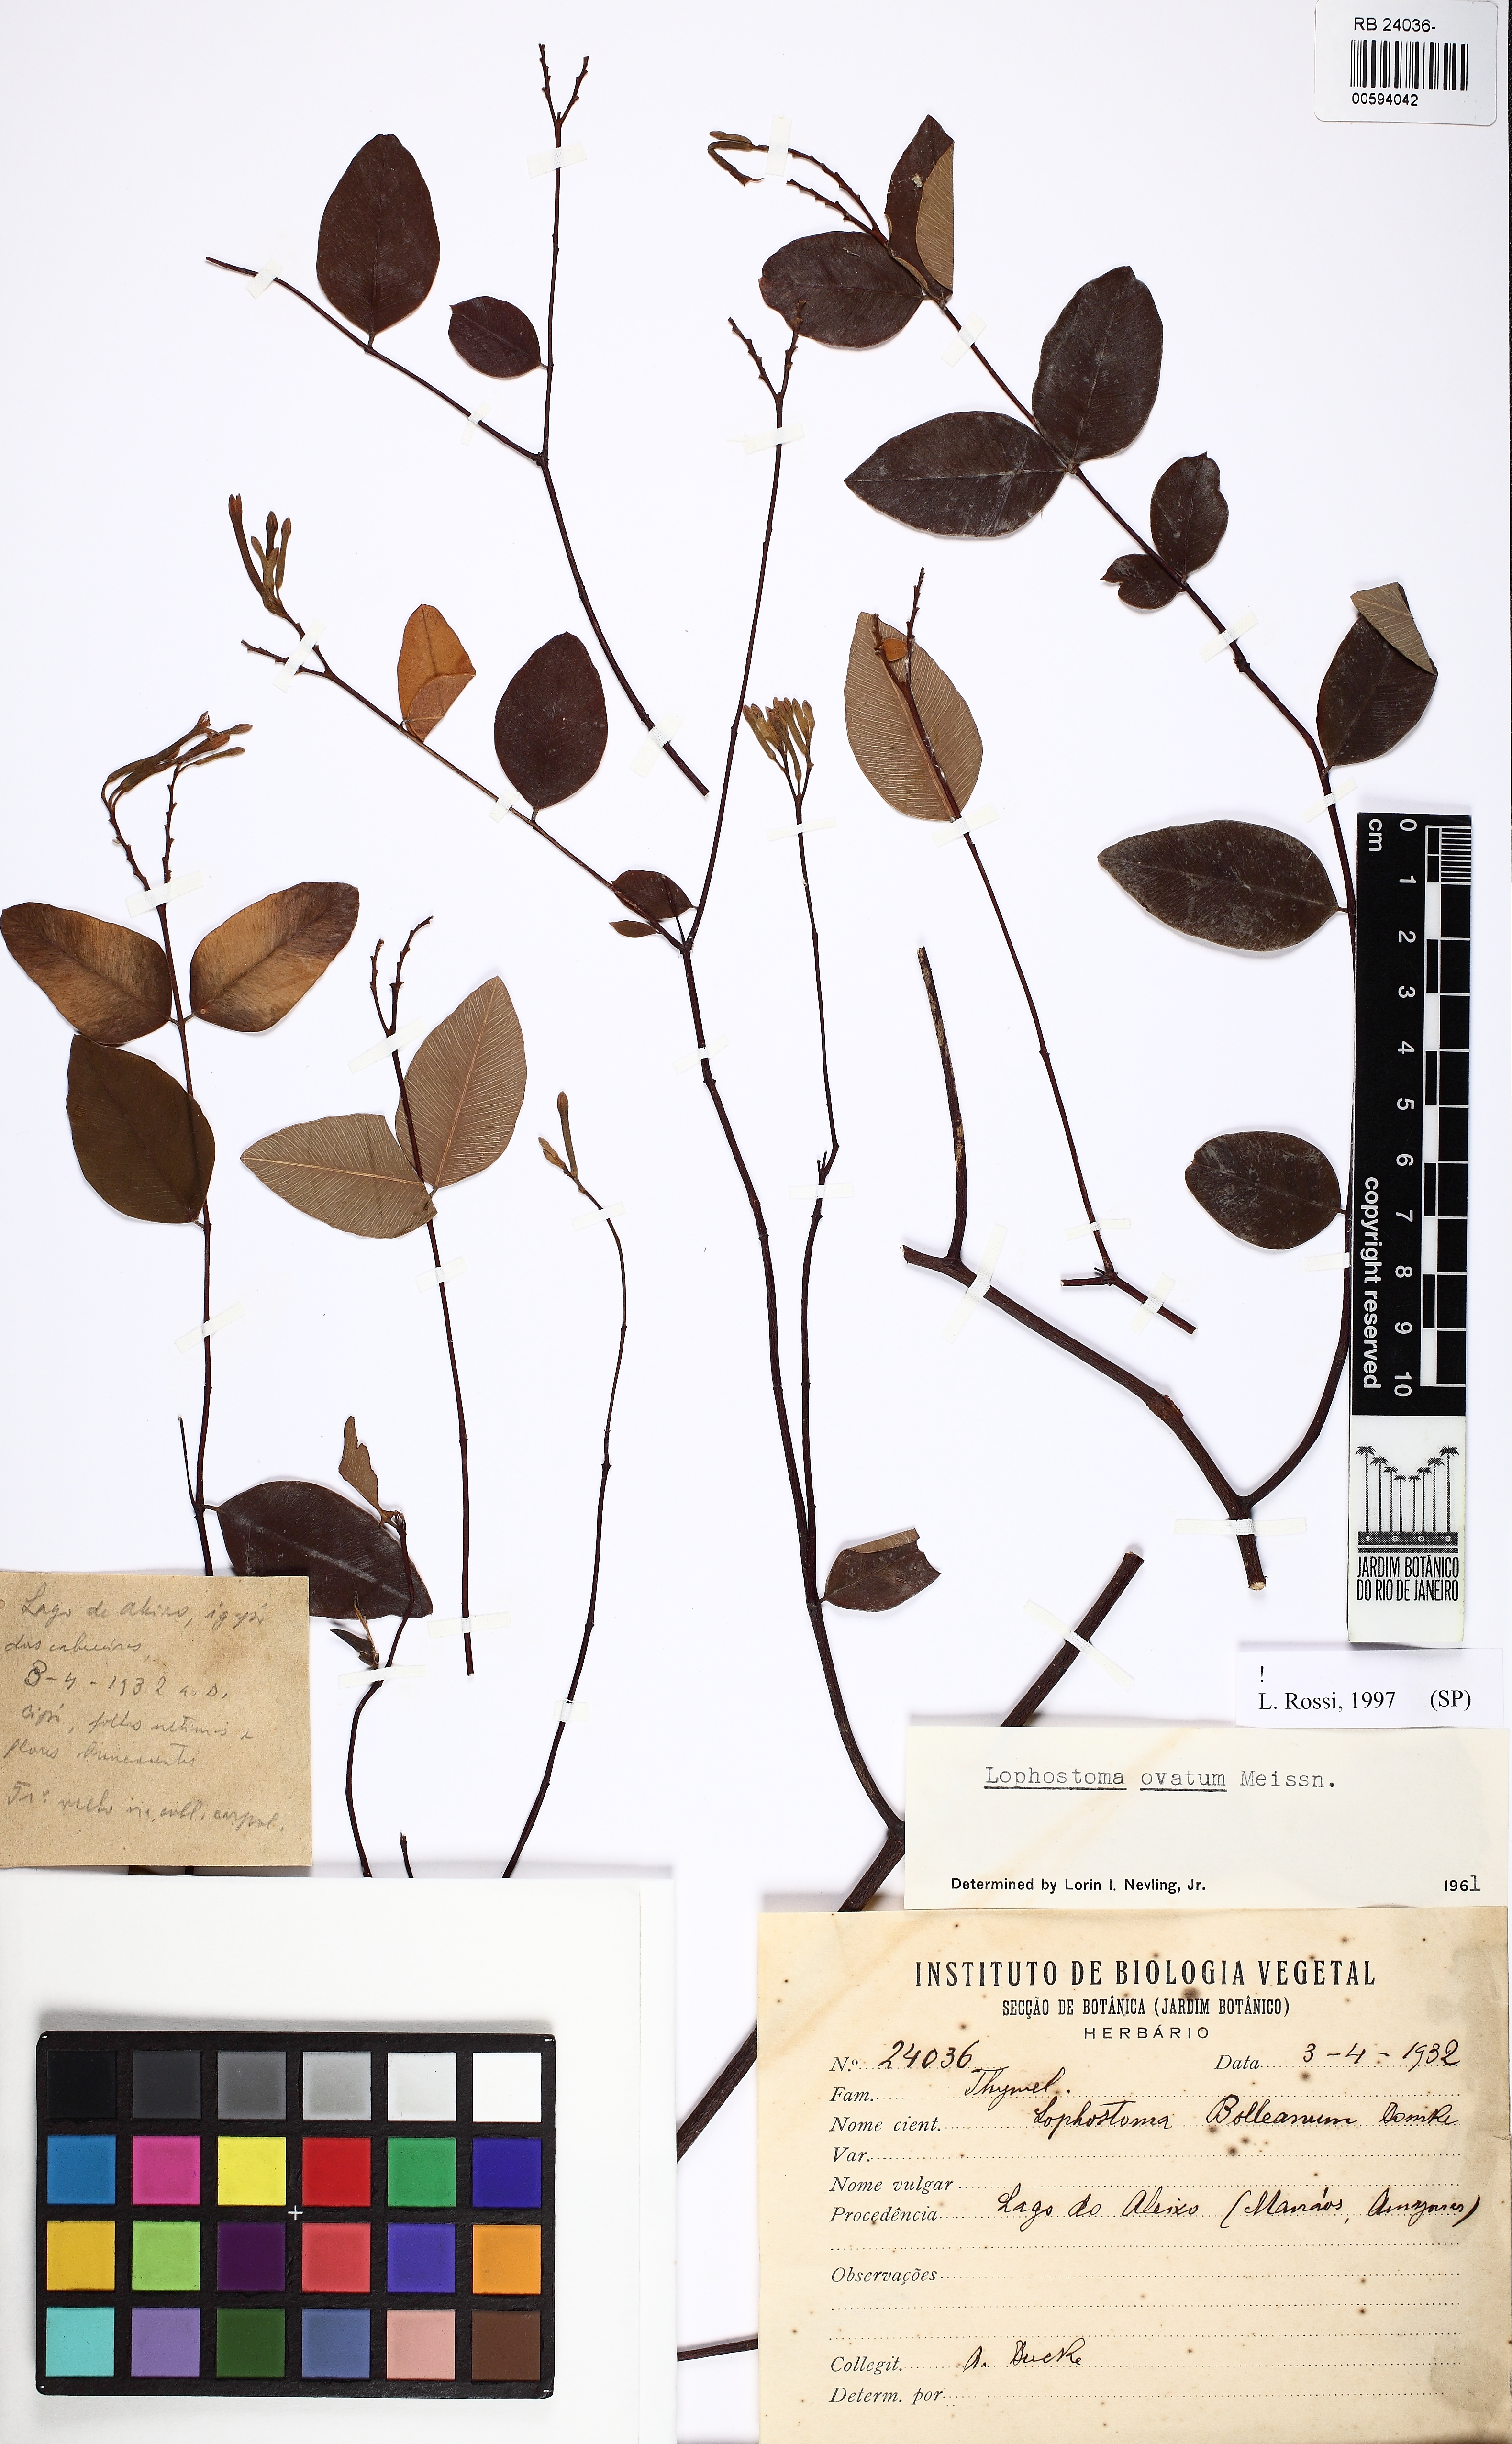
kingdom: Plantae
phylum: Tracheophyta
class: Magnoliopsida
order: Malvales
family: Thymelaeaceae
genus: Lophostoma
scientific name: Lophostoma ovatum
